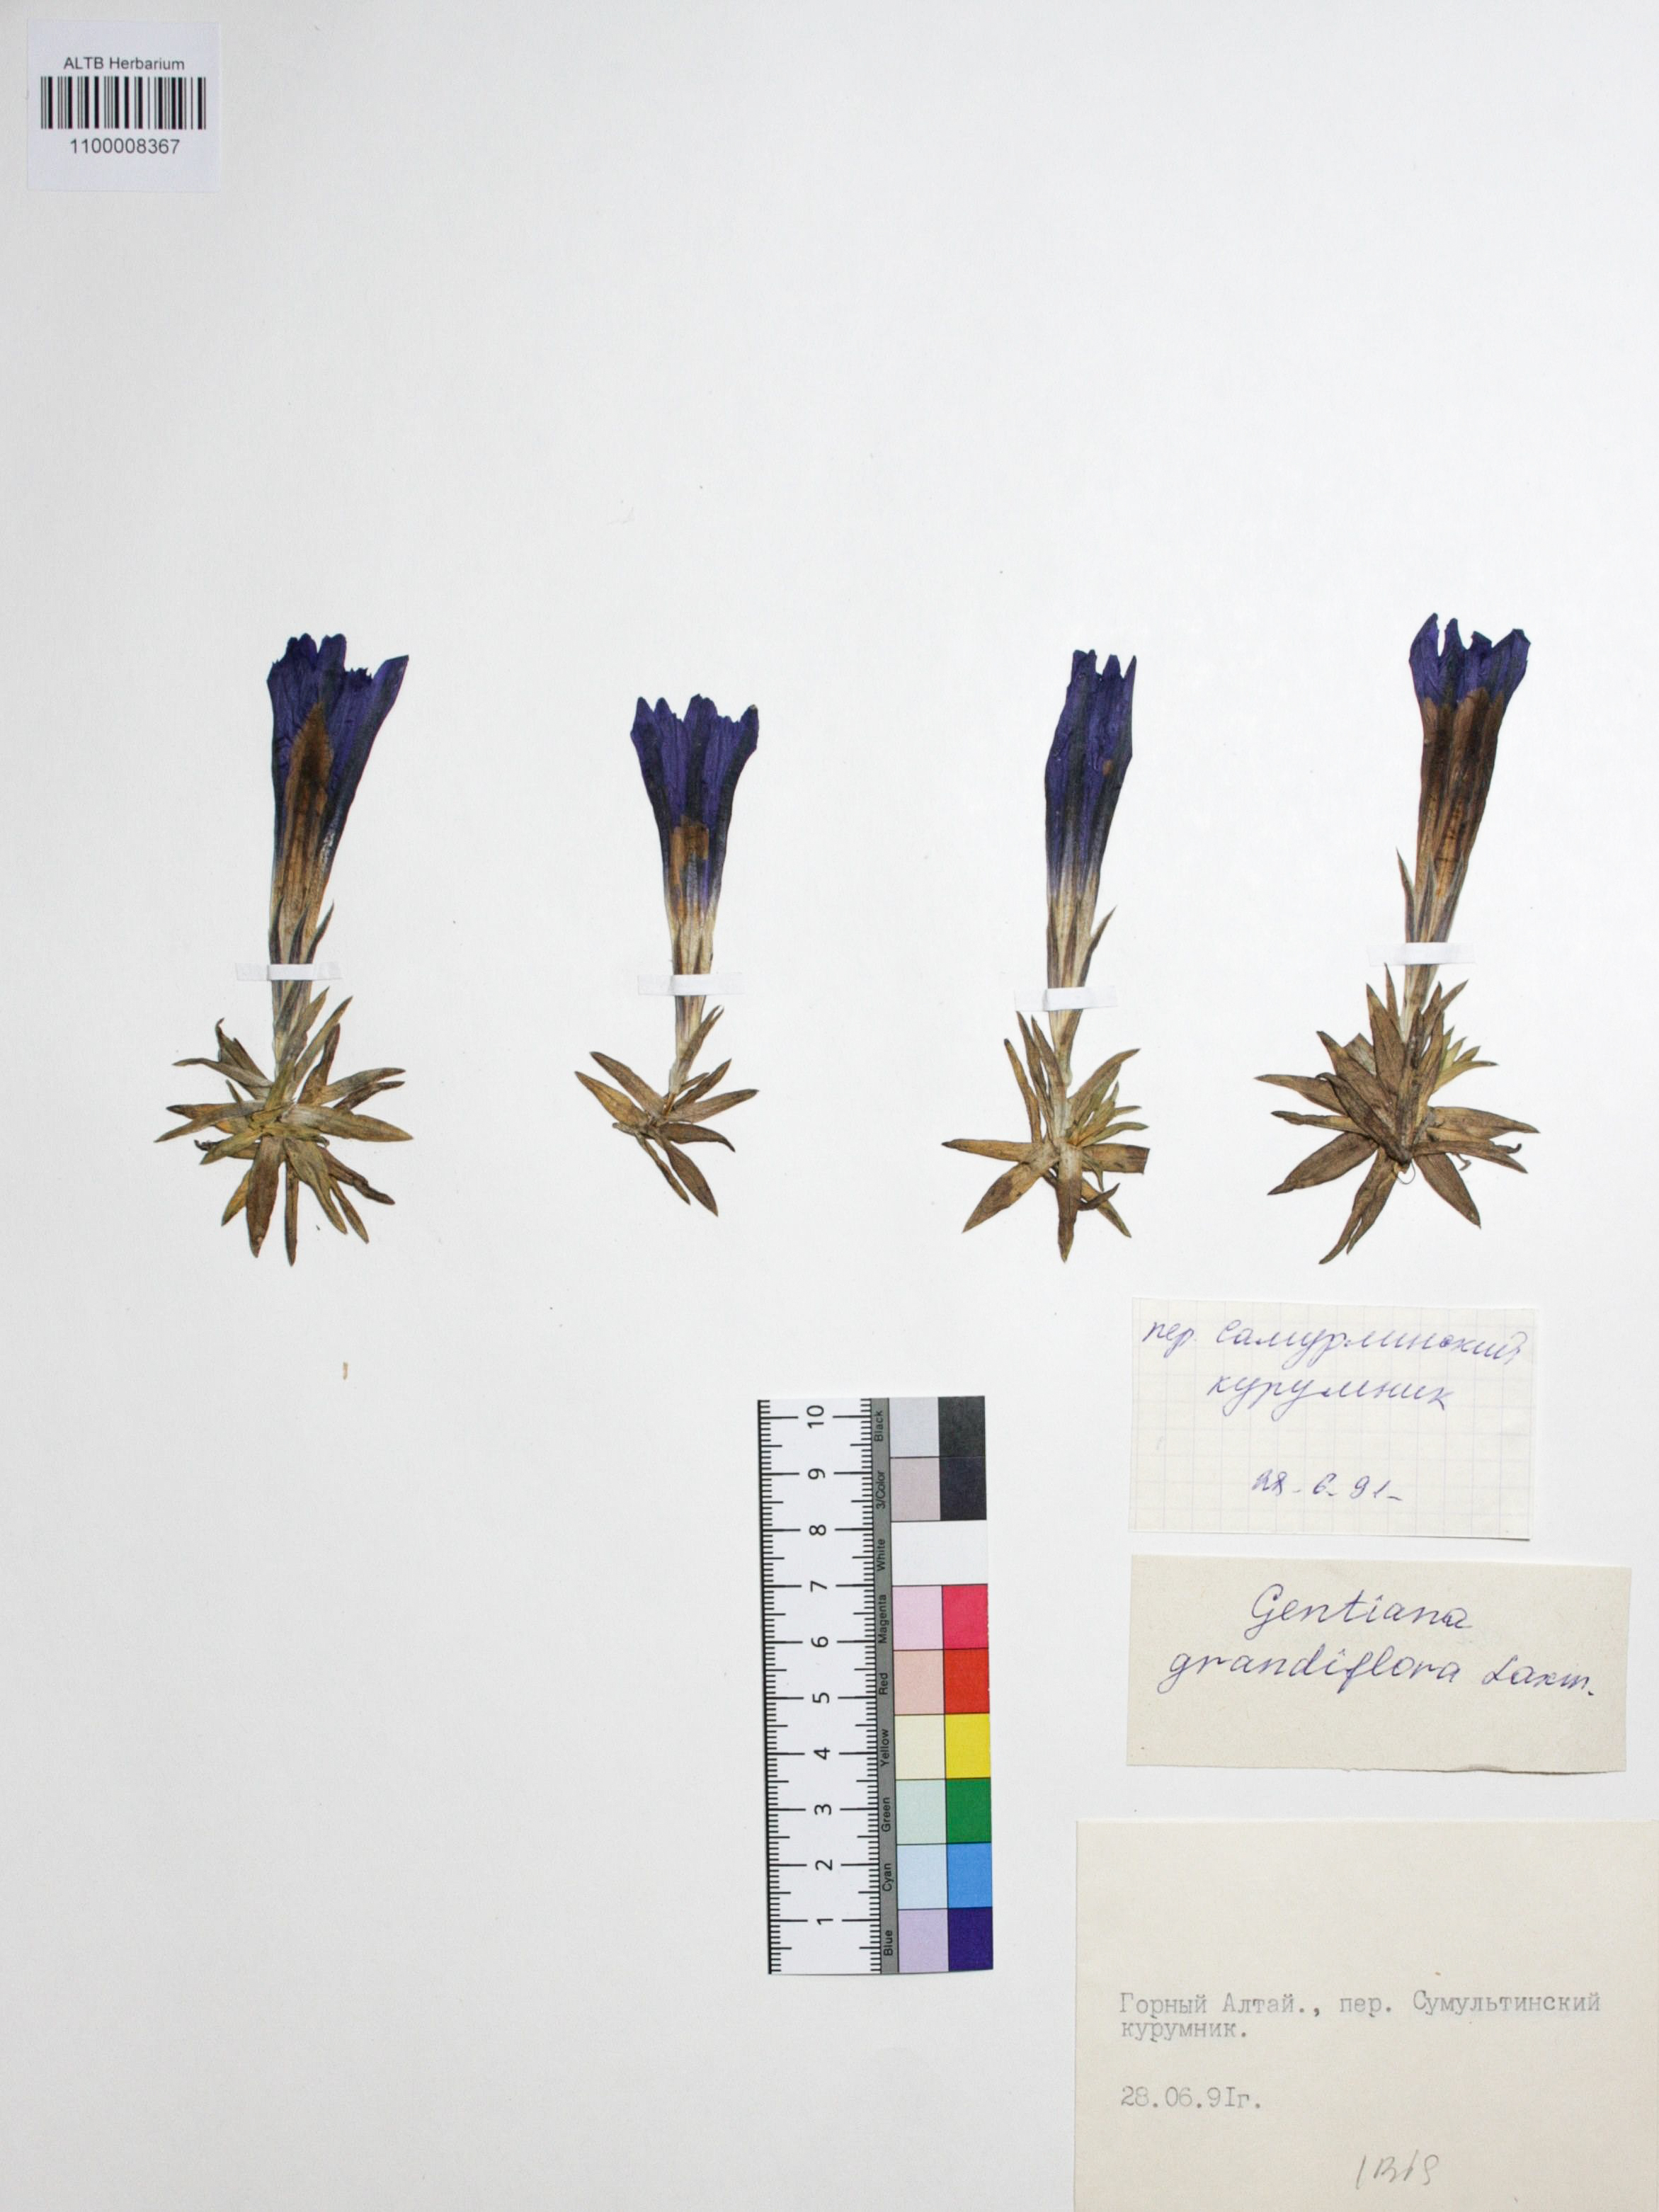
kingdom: Plantae
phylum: Tracheophyta
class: Magnoliopsida
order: Gentianales
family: Gentianaceae
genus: Gentiana
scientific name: Gentiana grandiflora
